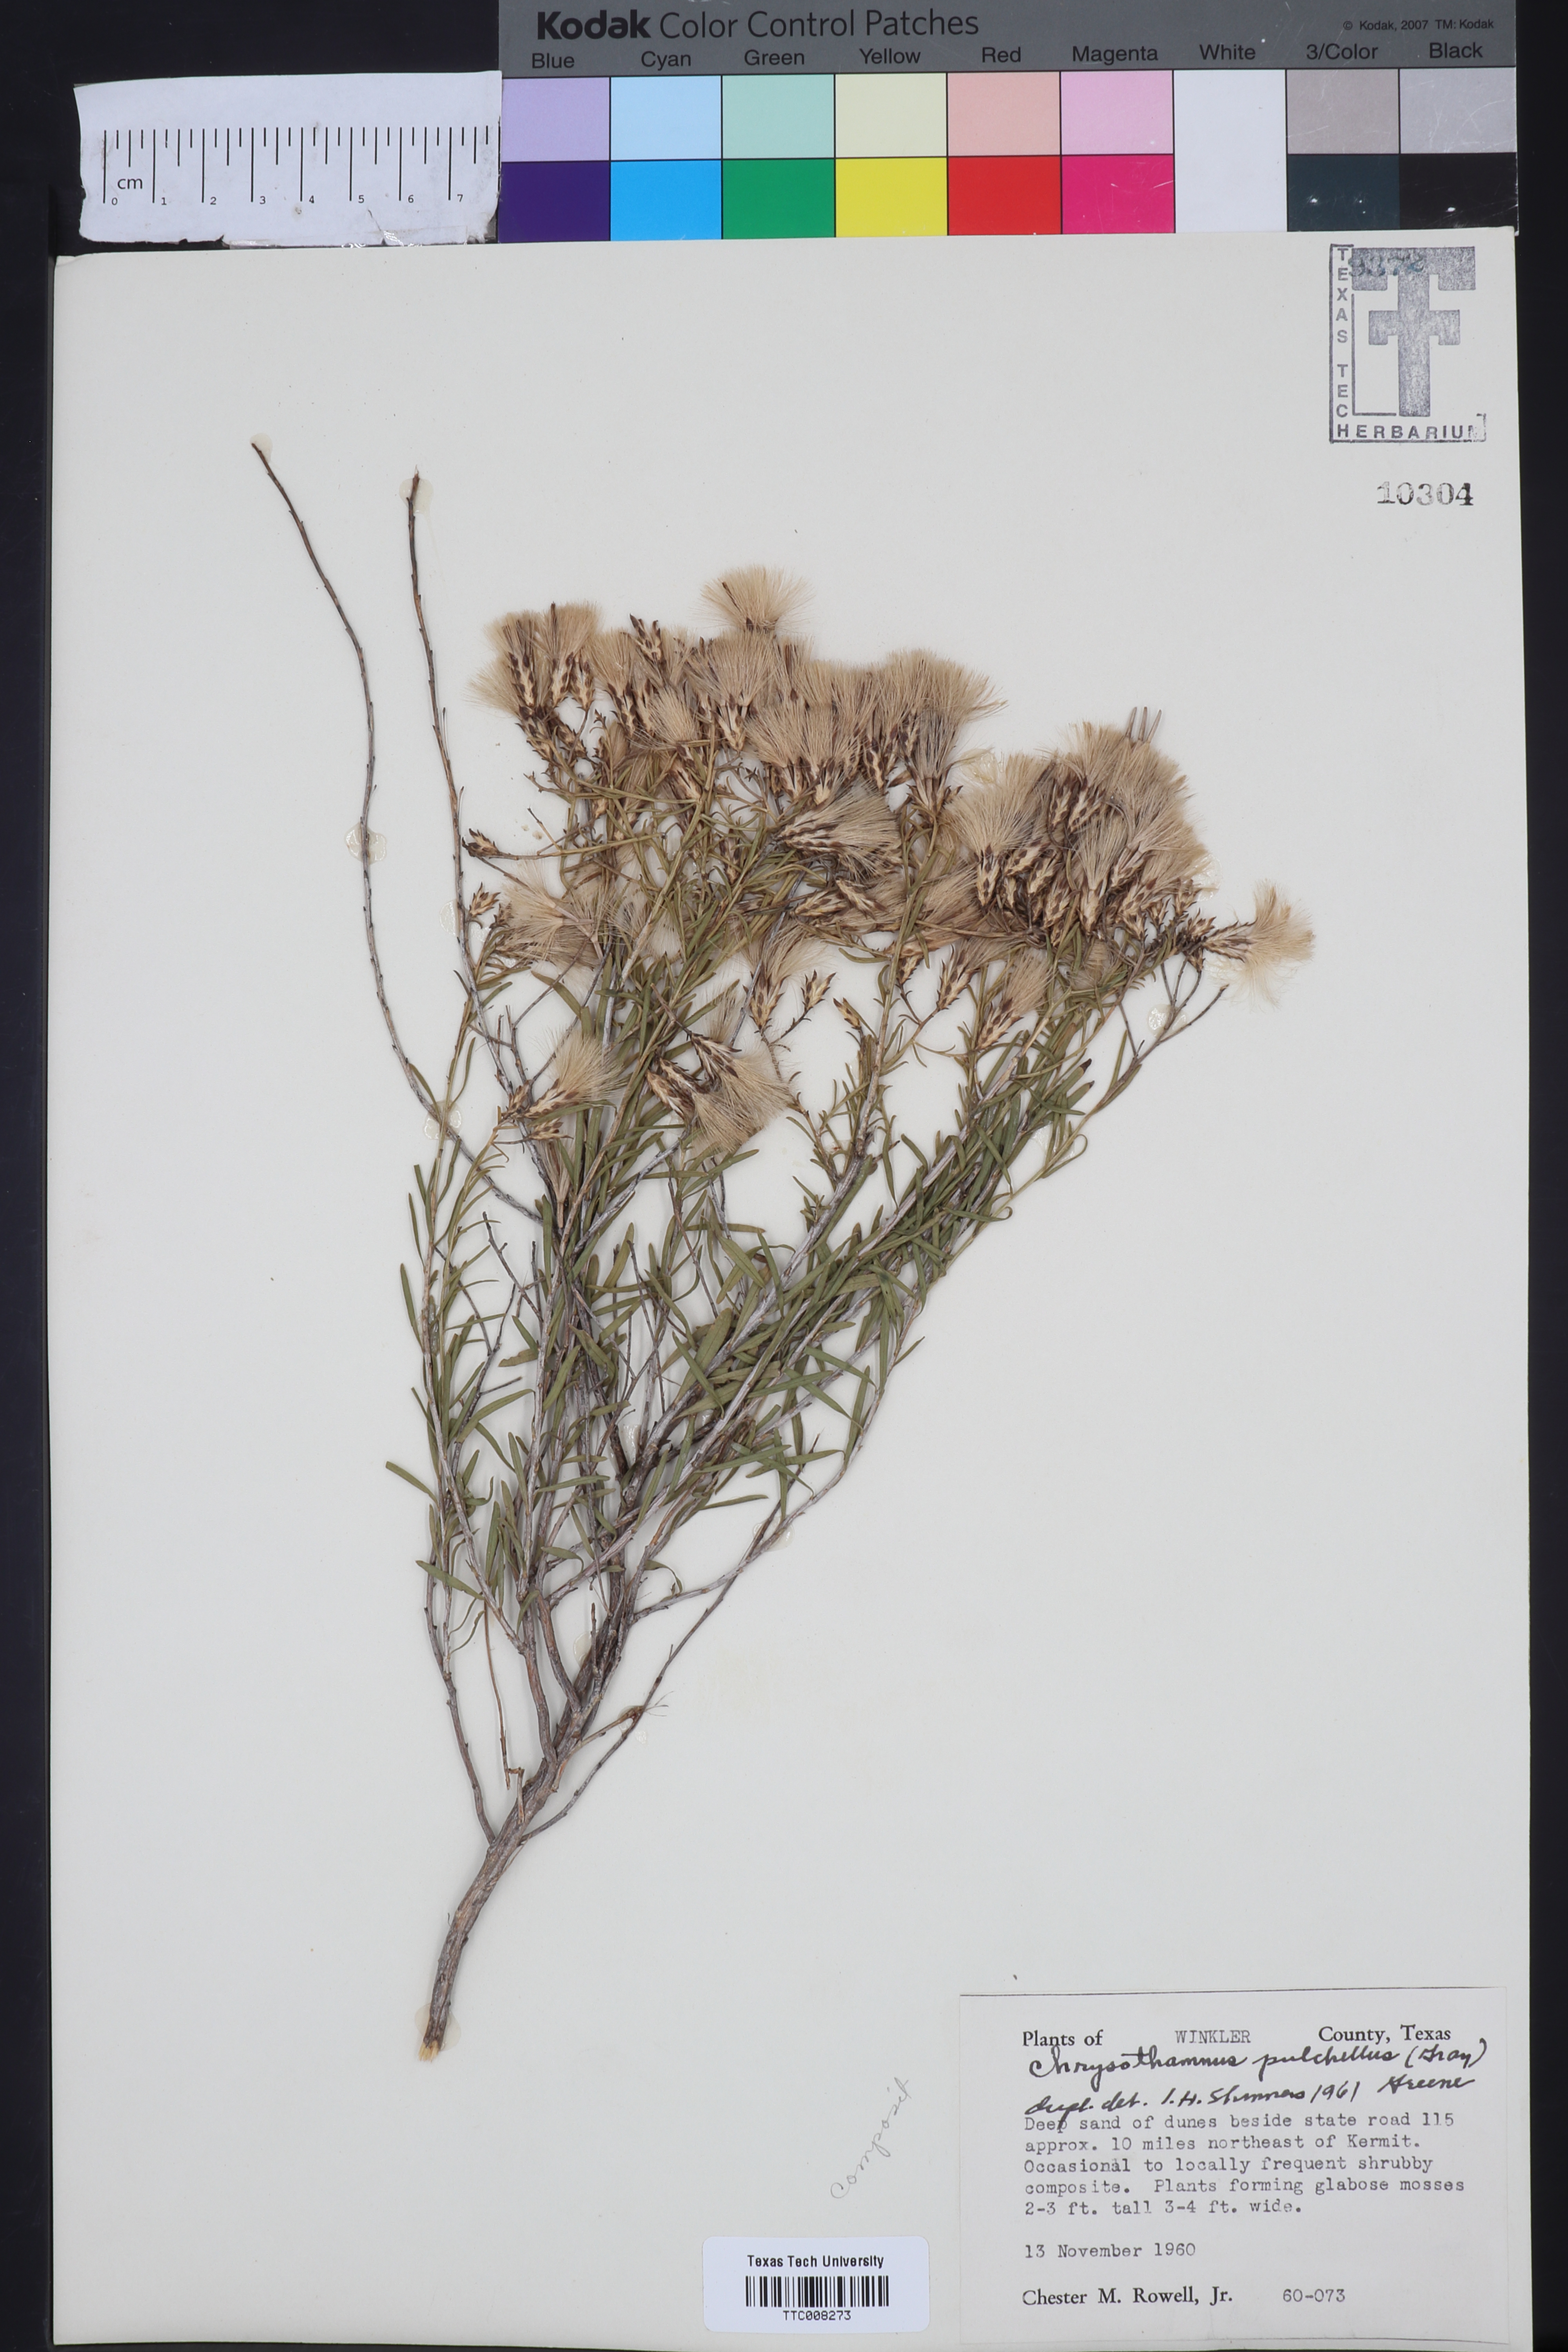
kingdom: Plantae
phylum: Tracheophyta
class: Magnoliopsida
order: Asterales
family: Asteraceae
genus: Lorandersonia
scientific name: Lorandersonia pulchella
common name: Southwestern rabbitbrush
